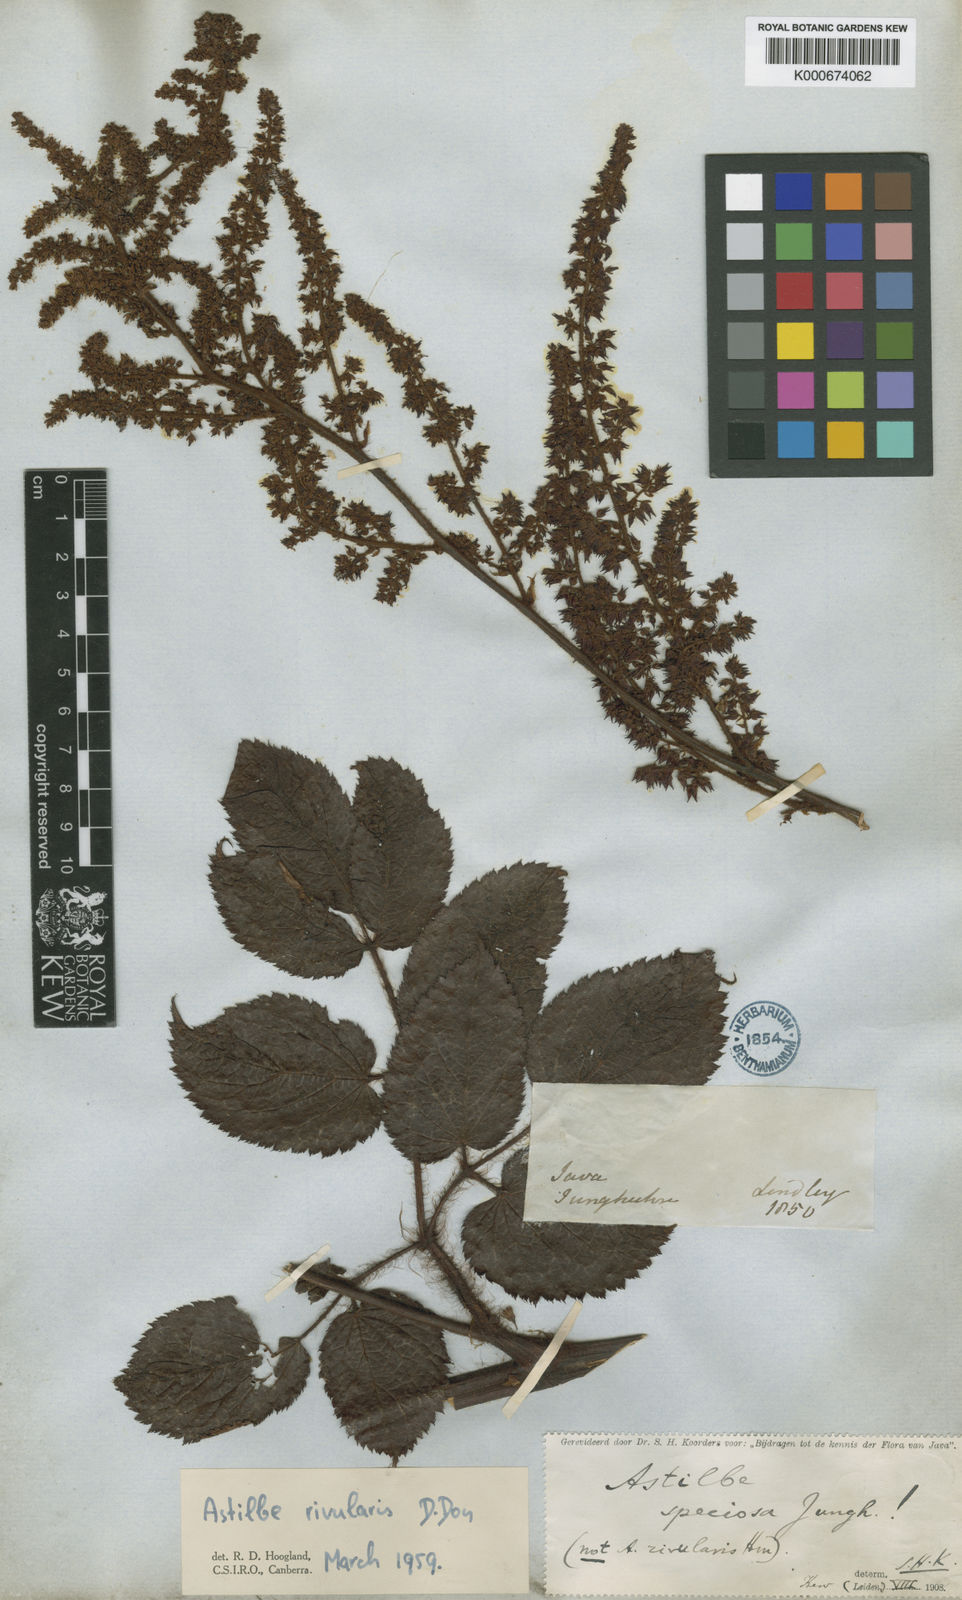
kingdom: Plantae
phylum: Tracheophyta
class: Magnoliopsida
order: Saxifragales
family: Saxifragaceae
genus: Astilbe
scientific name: Astilbe rivularis
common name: Tall false-buck's-beard
